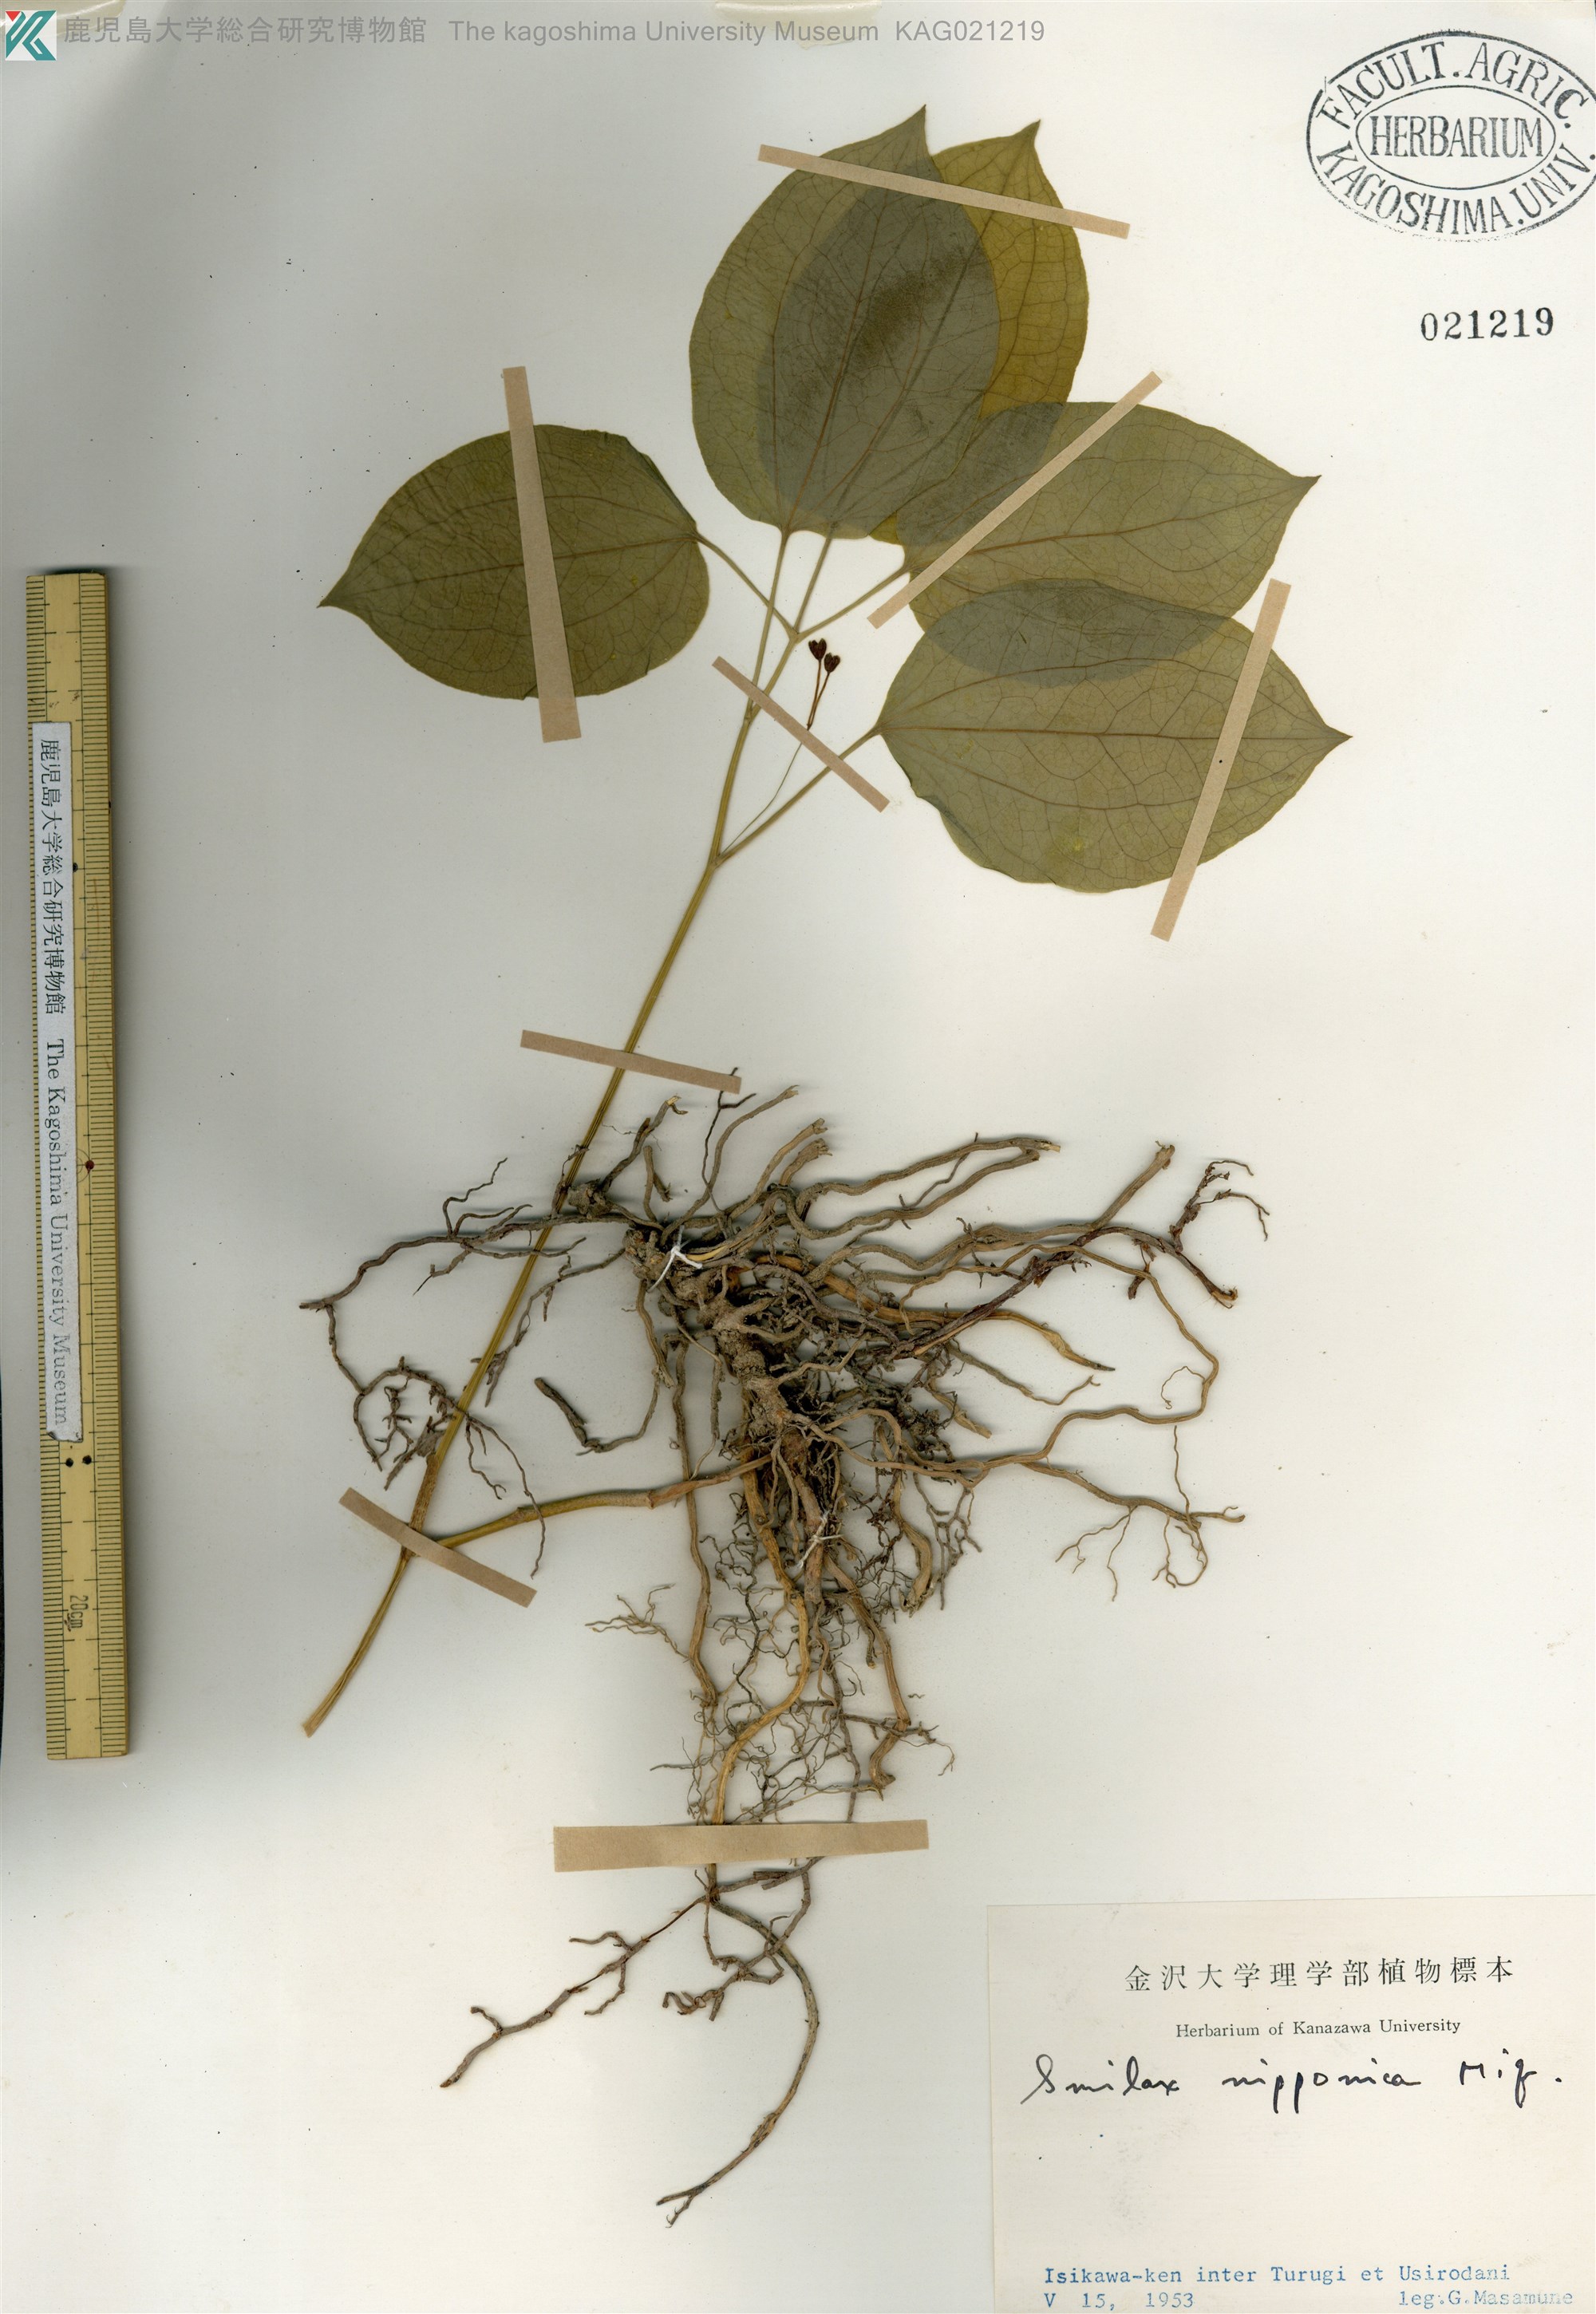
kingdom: Plantae
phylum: Tracheophyta
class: Liliopsida
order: Liliales
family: Smilacaceae
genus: Smilax
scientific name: Smilax nipponica
